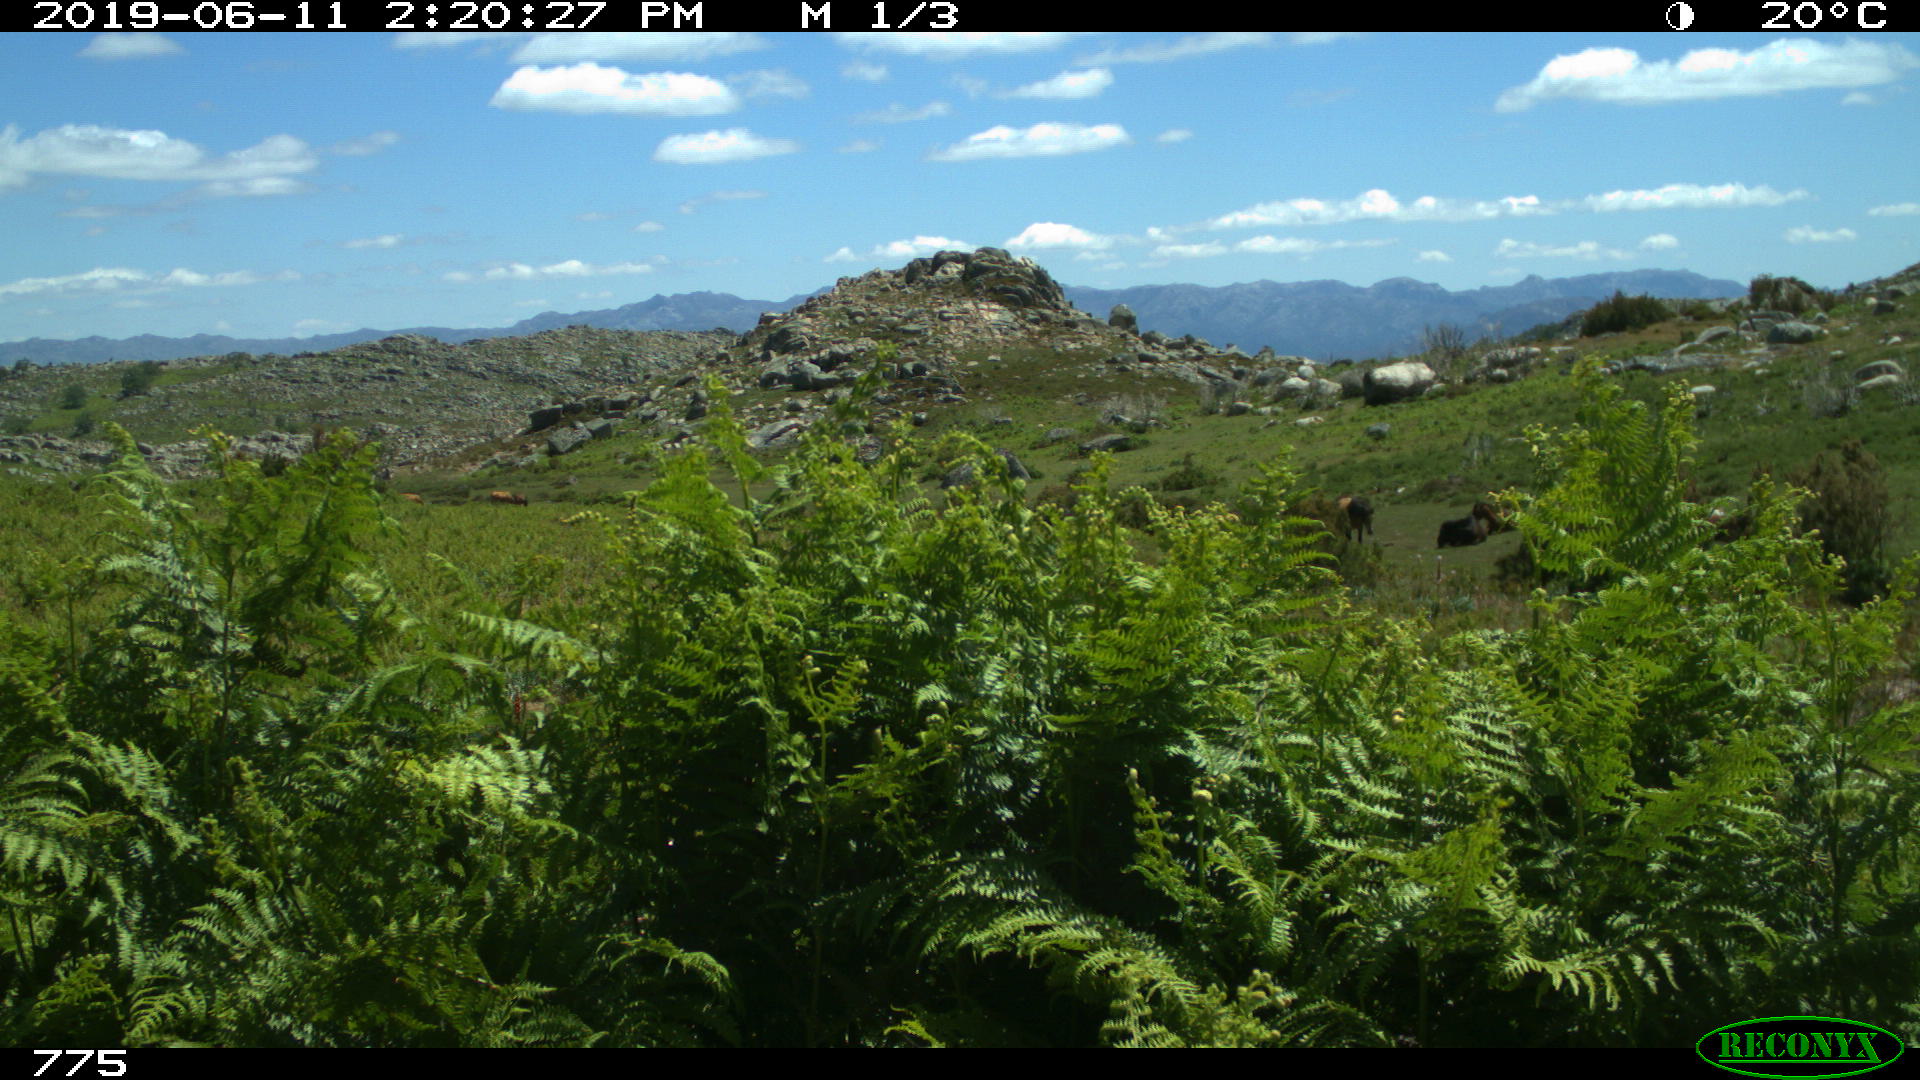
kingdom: Animalia
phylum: Chordata
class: Mammalia
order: Perissodactyla
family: Equidae
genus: Equus
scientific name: Equus caballus
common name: Horse
